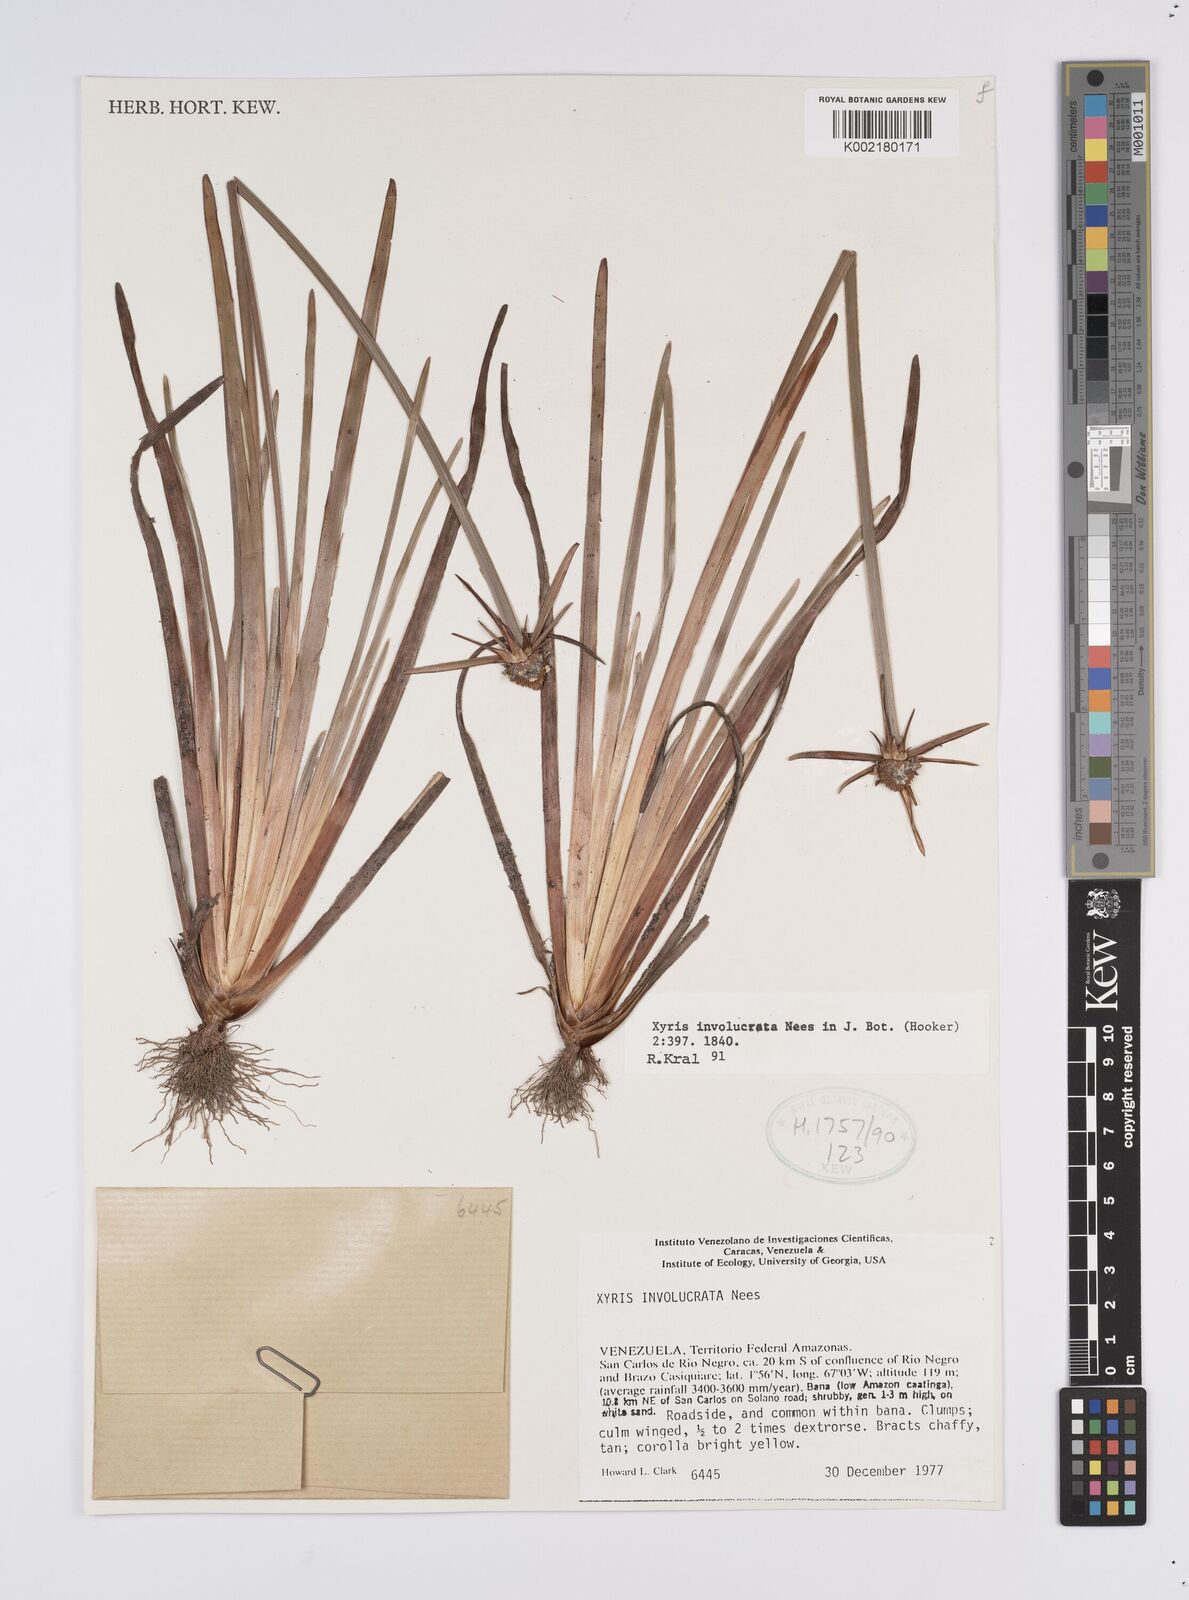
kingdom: Plantae
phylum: Tracheophyta
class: Liliopsida
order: Poales
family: Xyridaceae
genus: Xyris
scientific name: Xyris involucrata
